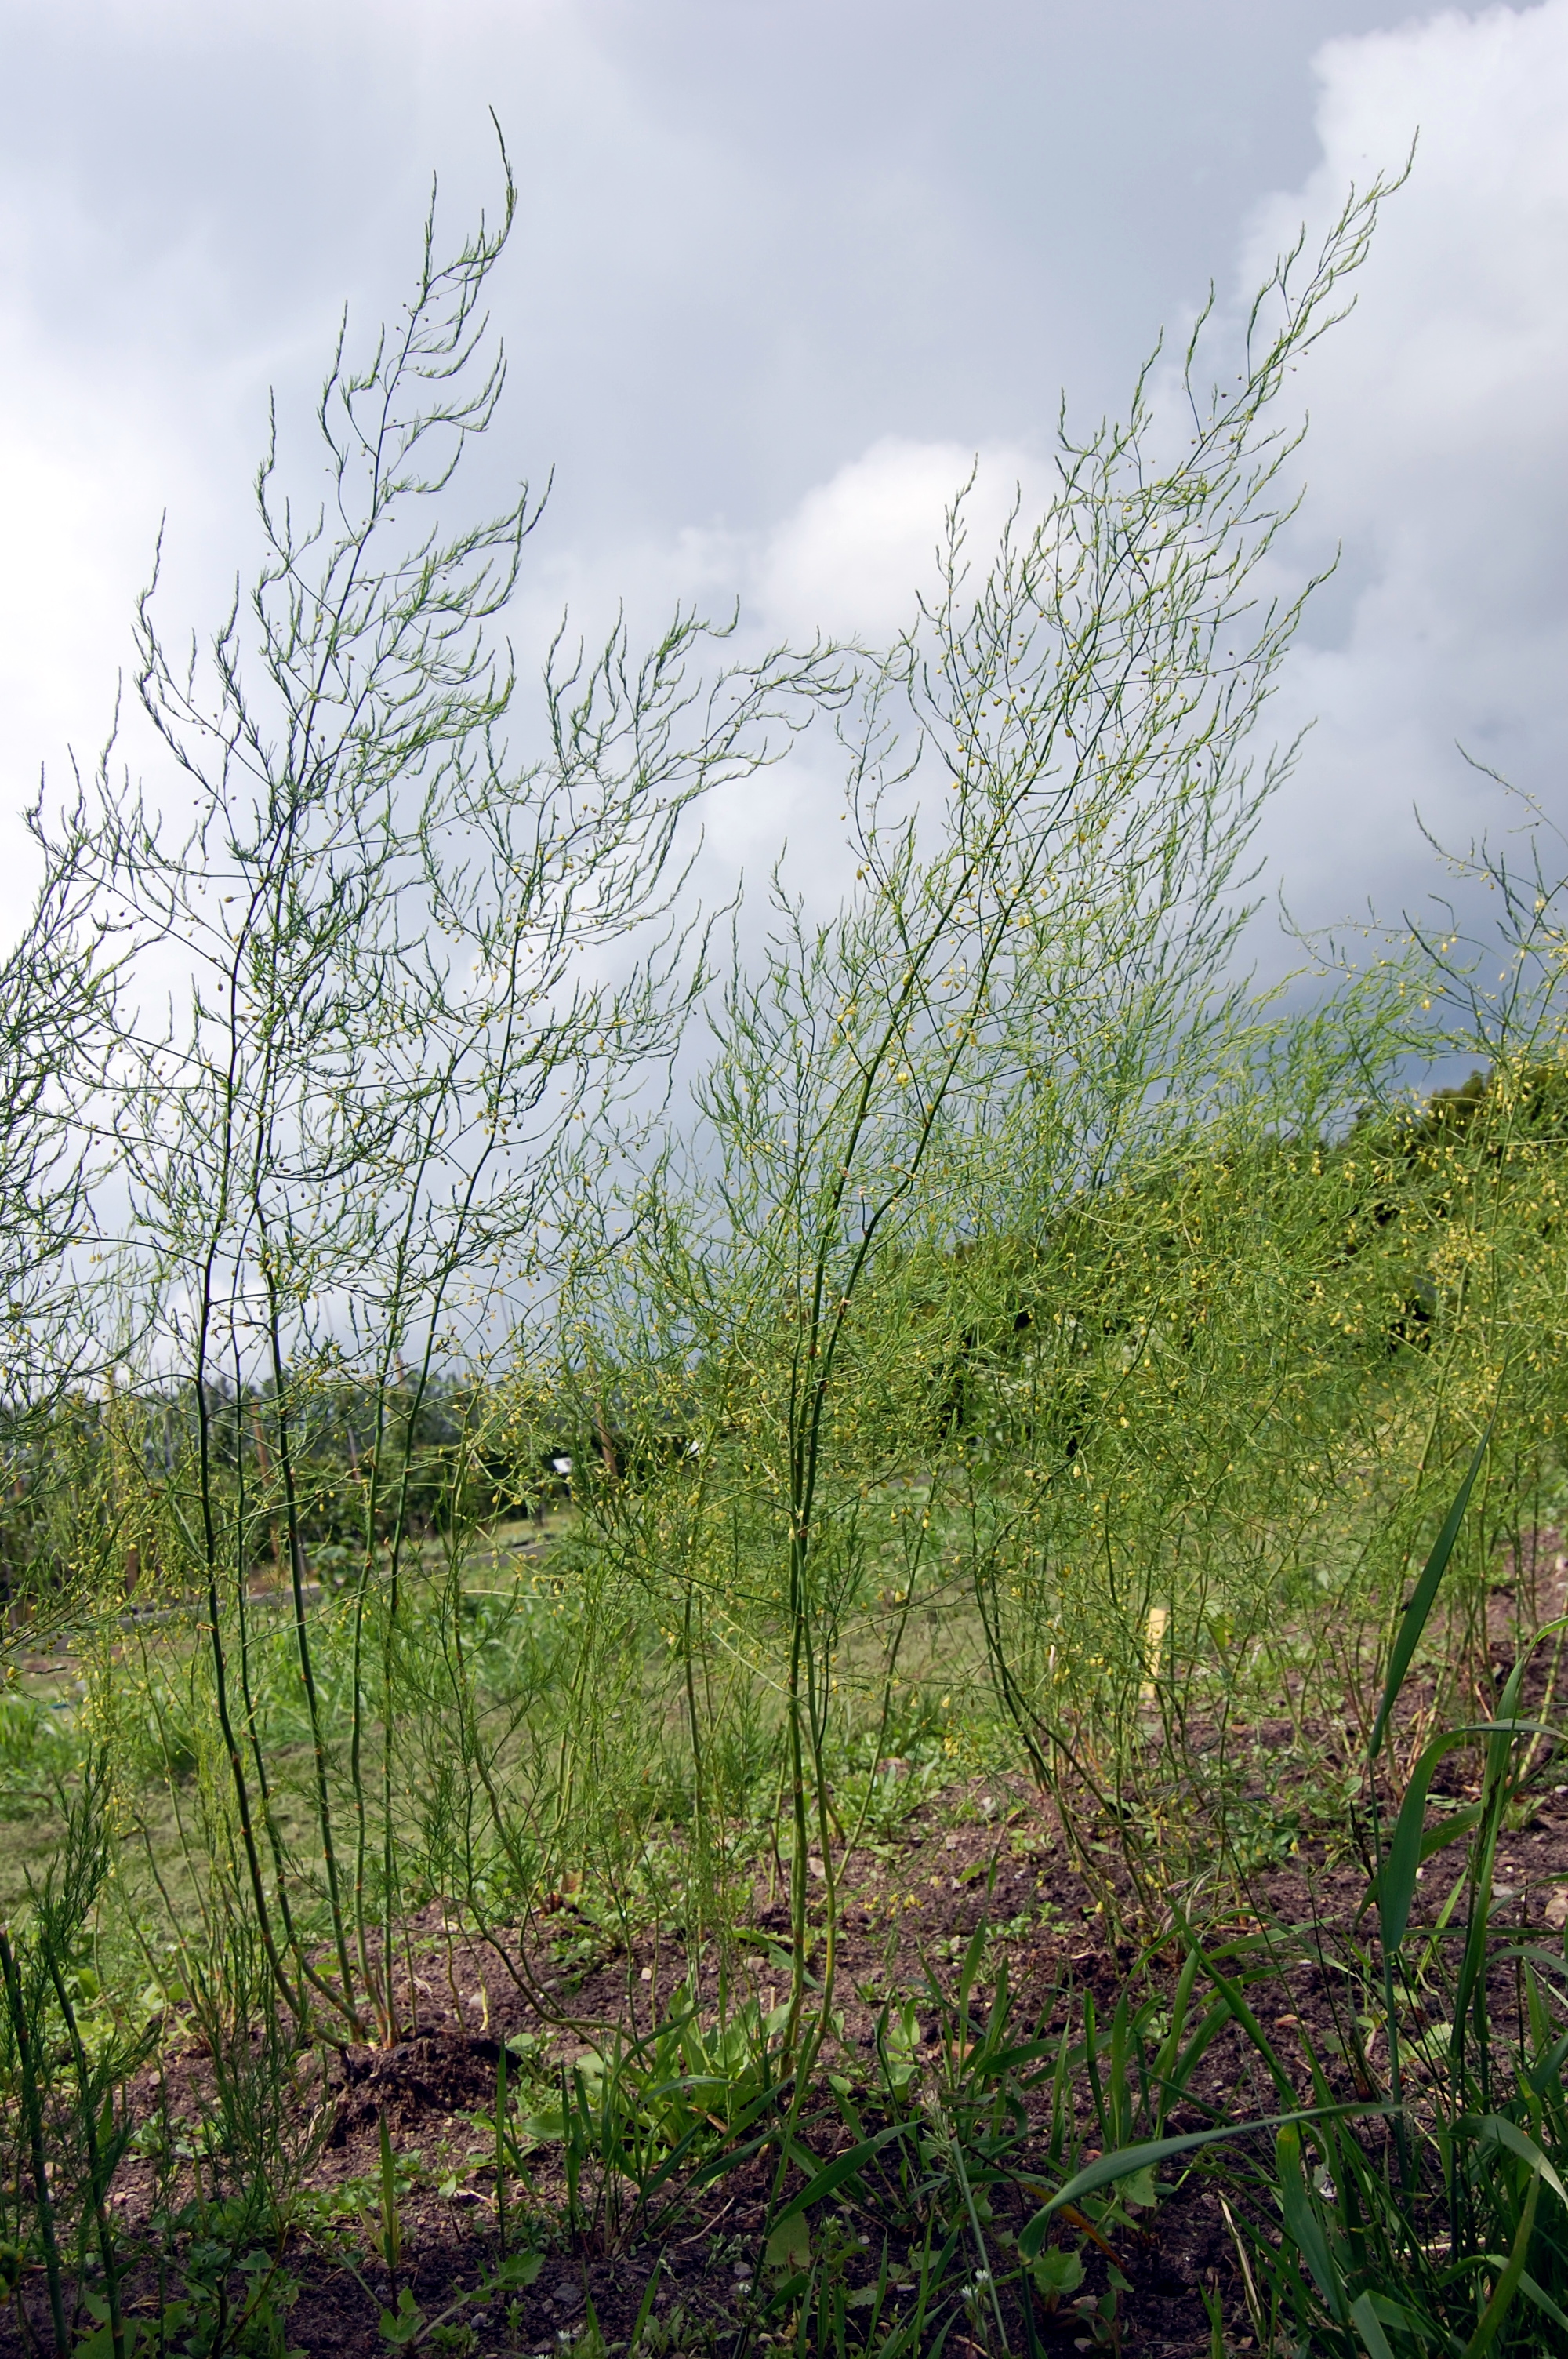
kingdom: Plantae
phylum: Tracheophyta
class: Liliopsida
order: Asparagales
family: Asparagaceae
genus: Asparagus
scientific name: Asparagus officinalis
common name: Garden asparagus
